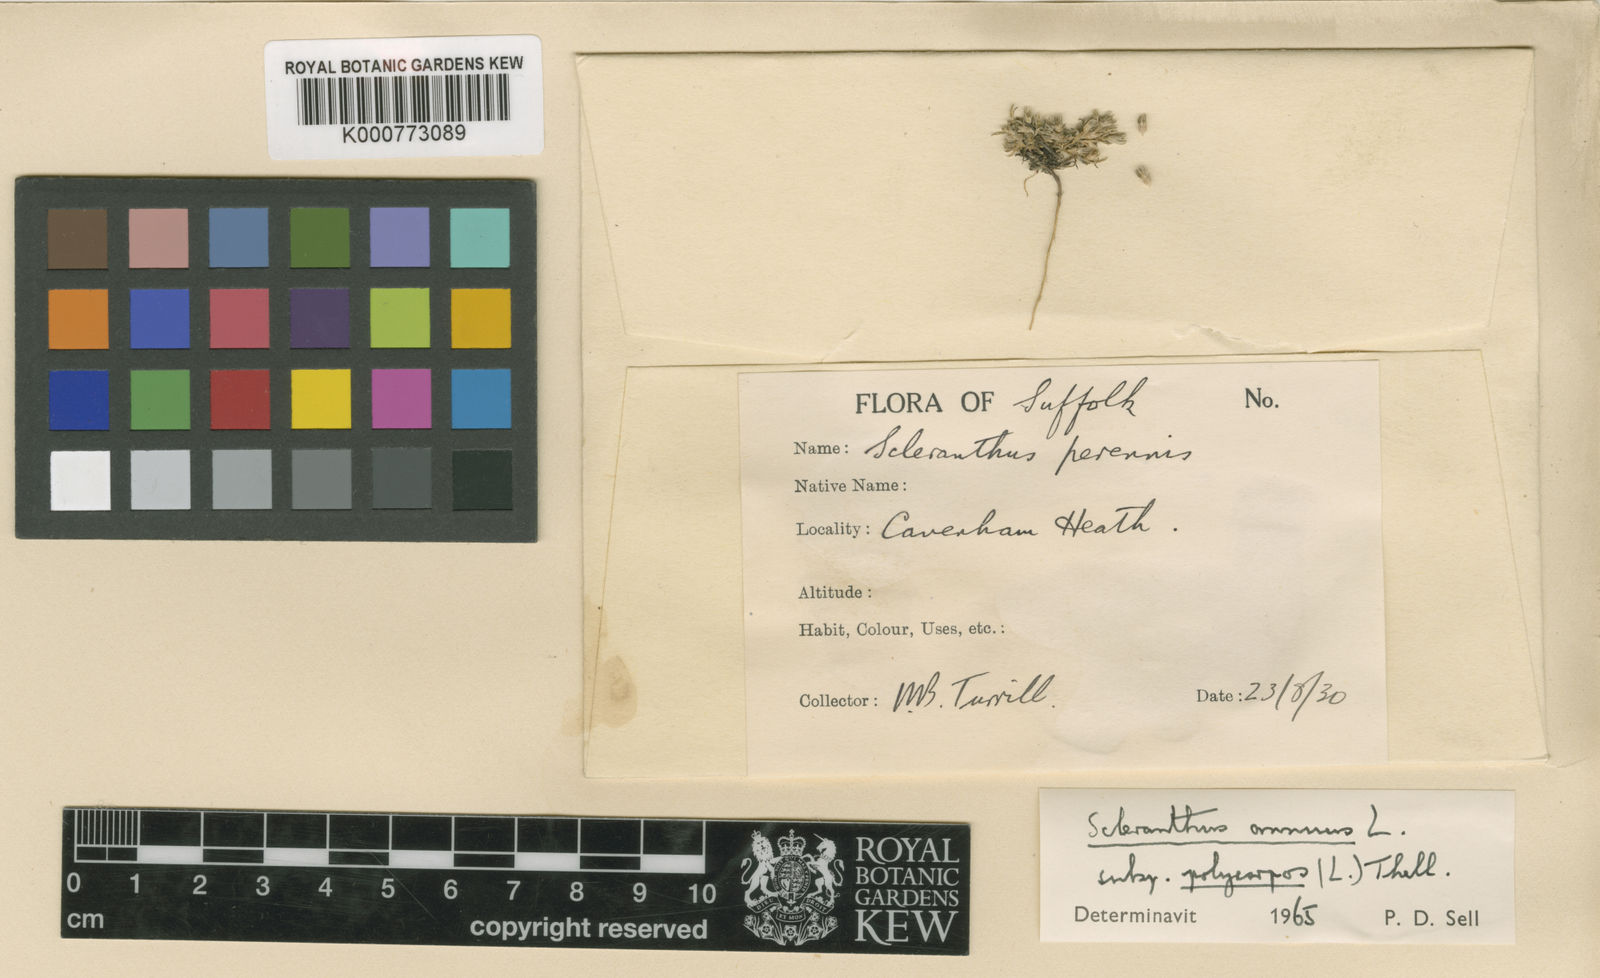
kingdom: Plantae
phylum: Tracheophyta
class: Magnoliopsida
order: Caryophyllales
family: Caryophyllaceae
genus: Scleranthus
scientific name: Scleranthus annuus
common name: Annual knawel
